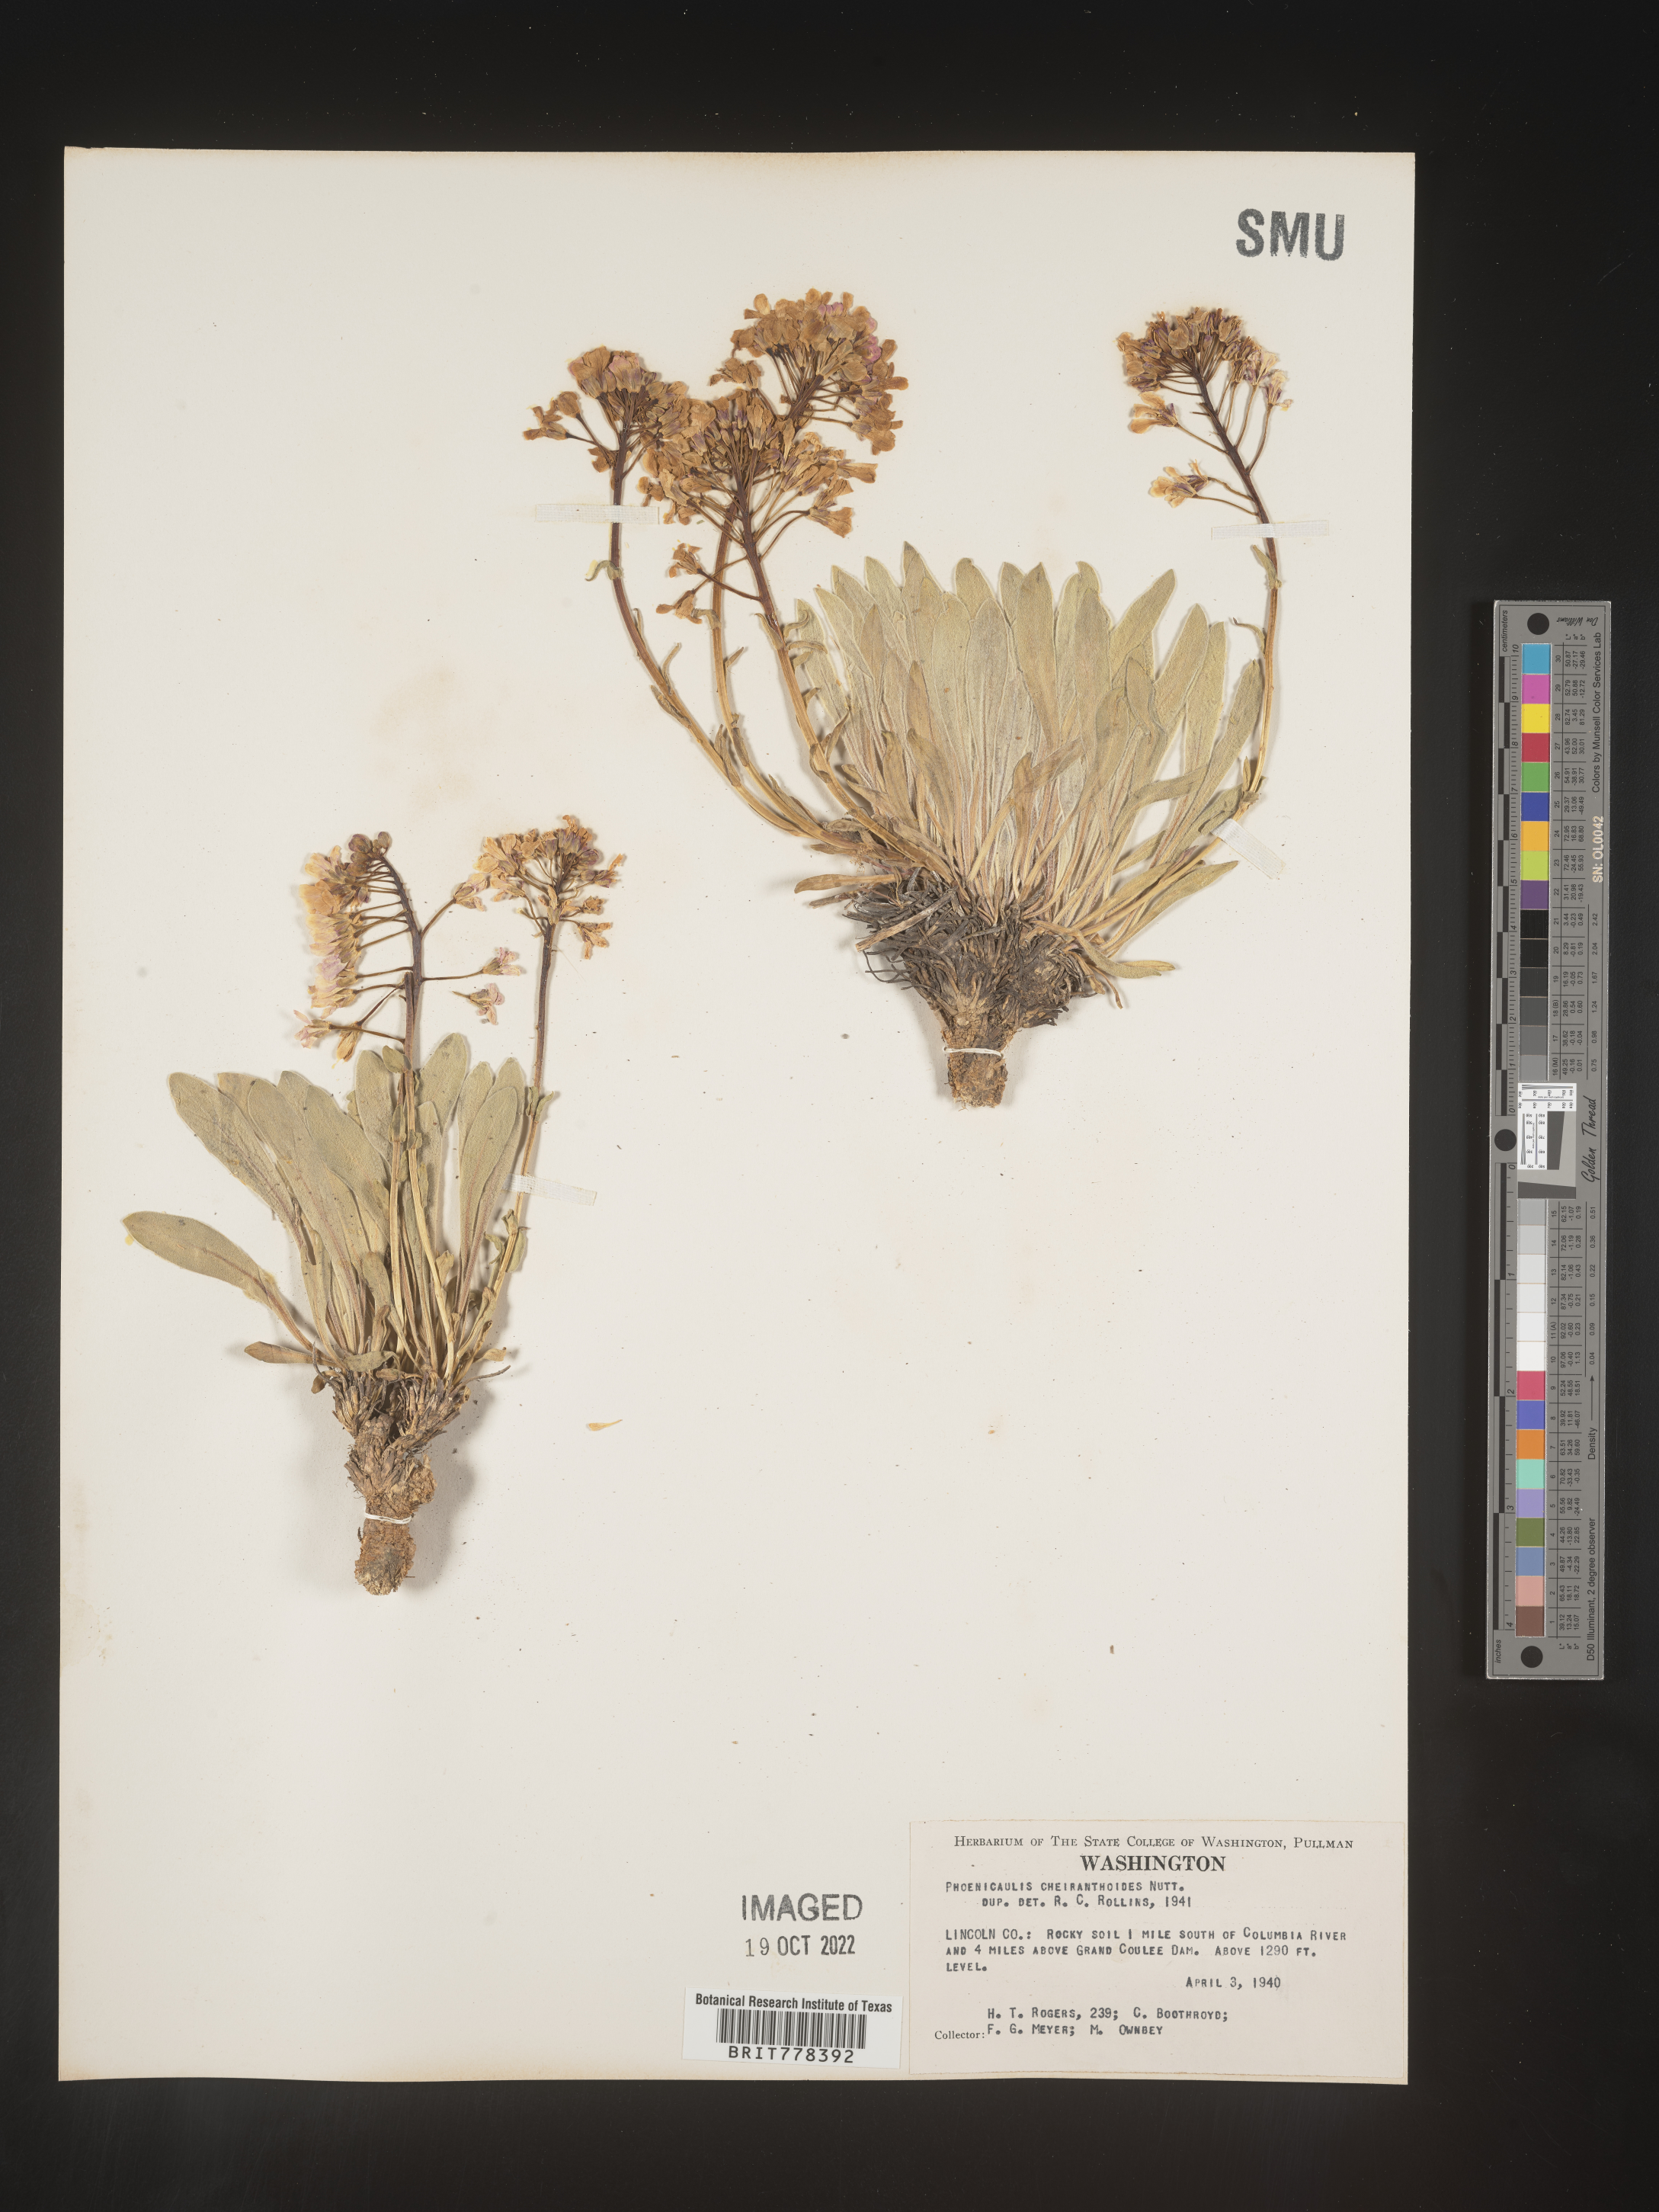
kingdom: Plantae
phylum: Tracheophyta
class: Magnoliopsida
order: Brassicales
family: Brassicaceae
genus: Phoenicaulis
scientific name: Phoenicaulis
